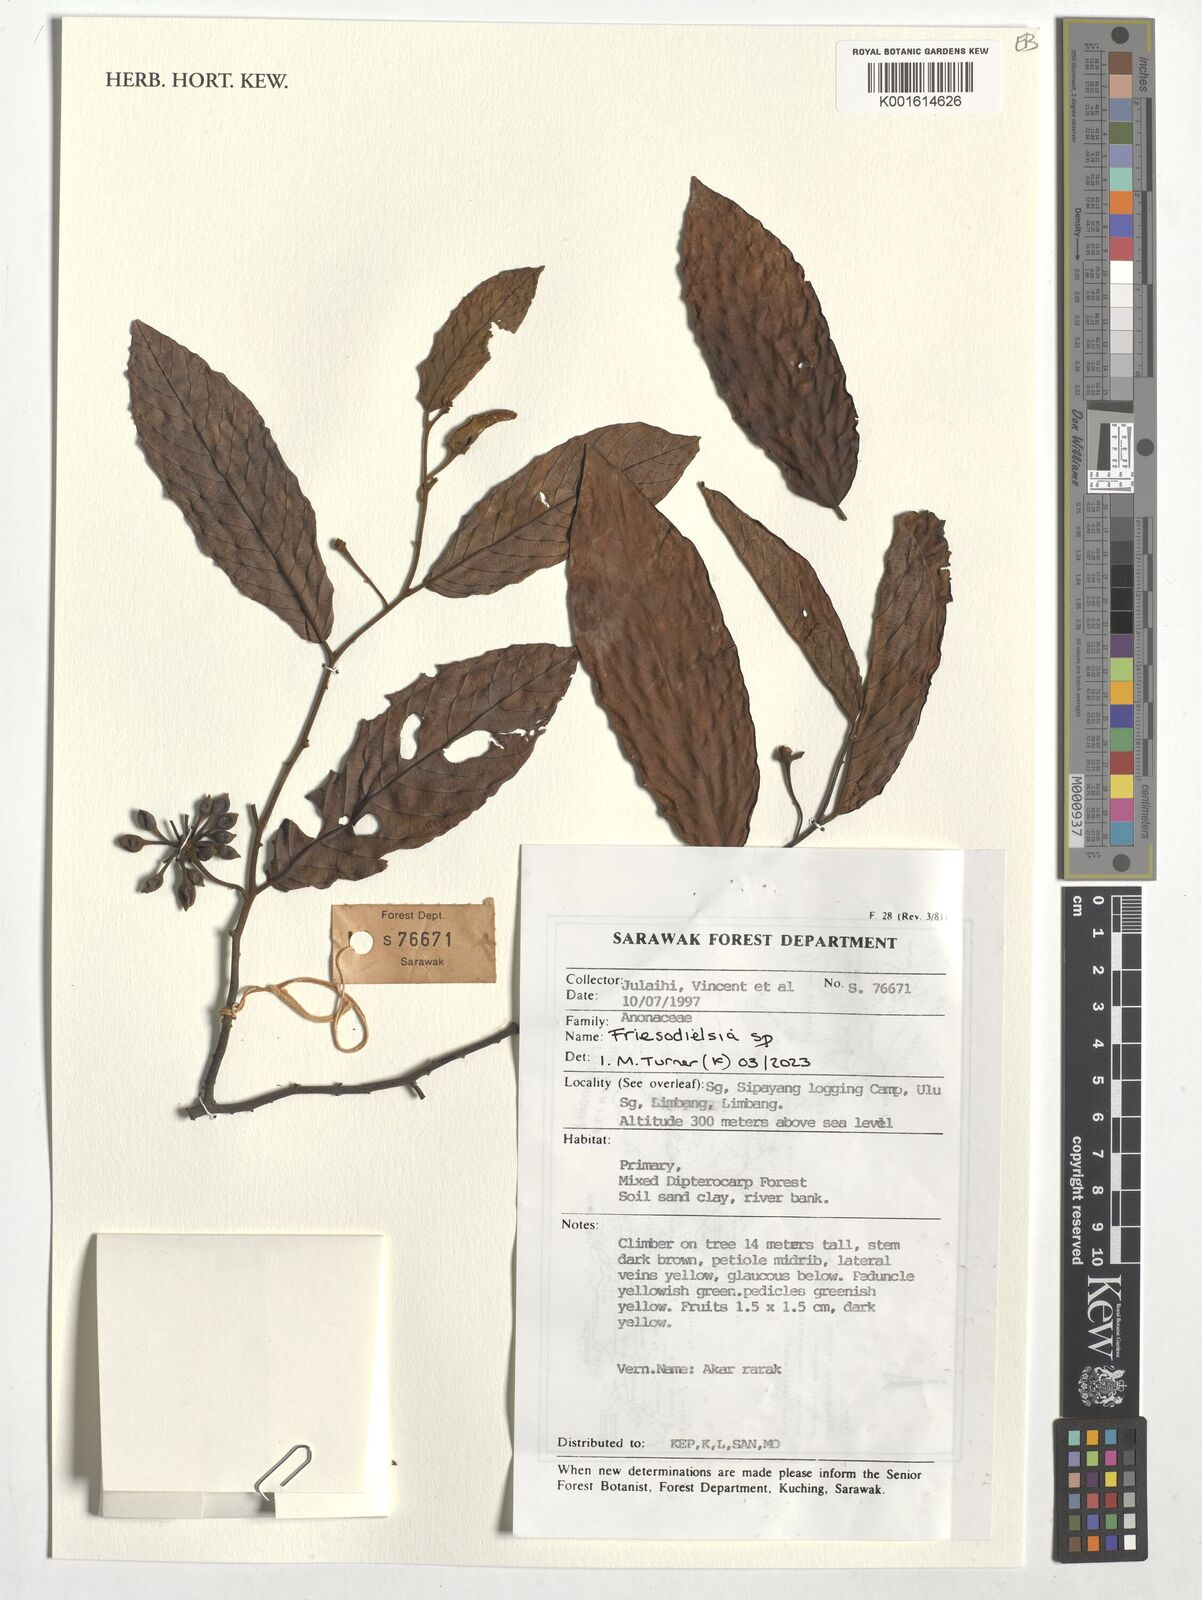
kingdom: Plantae
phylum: Tracheophyta
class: Magnoliopsida
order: Magnoliales
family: Annonaceae
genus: Friesodielsia
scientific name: Friesodielsia
